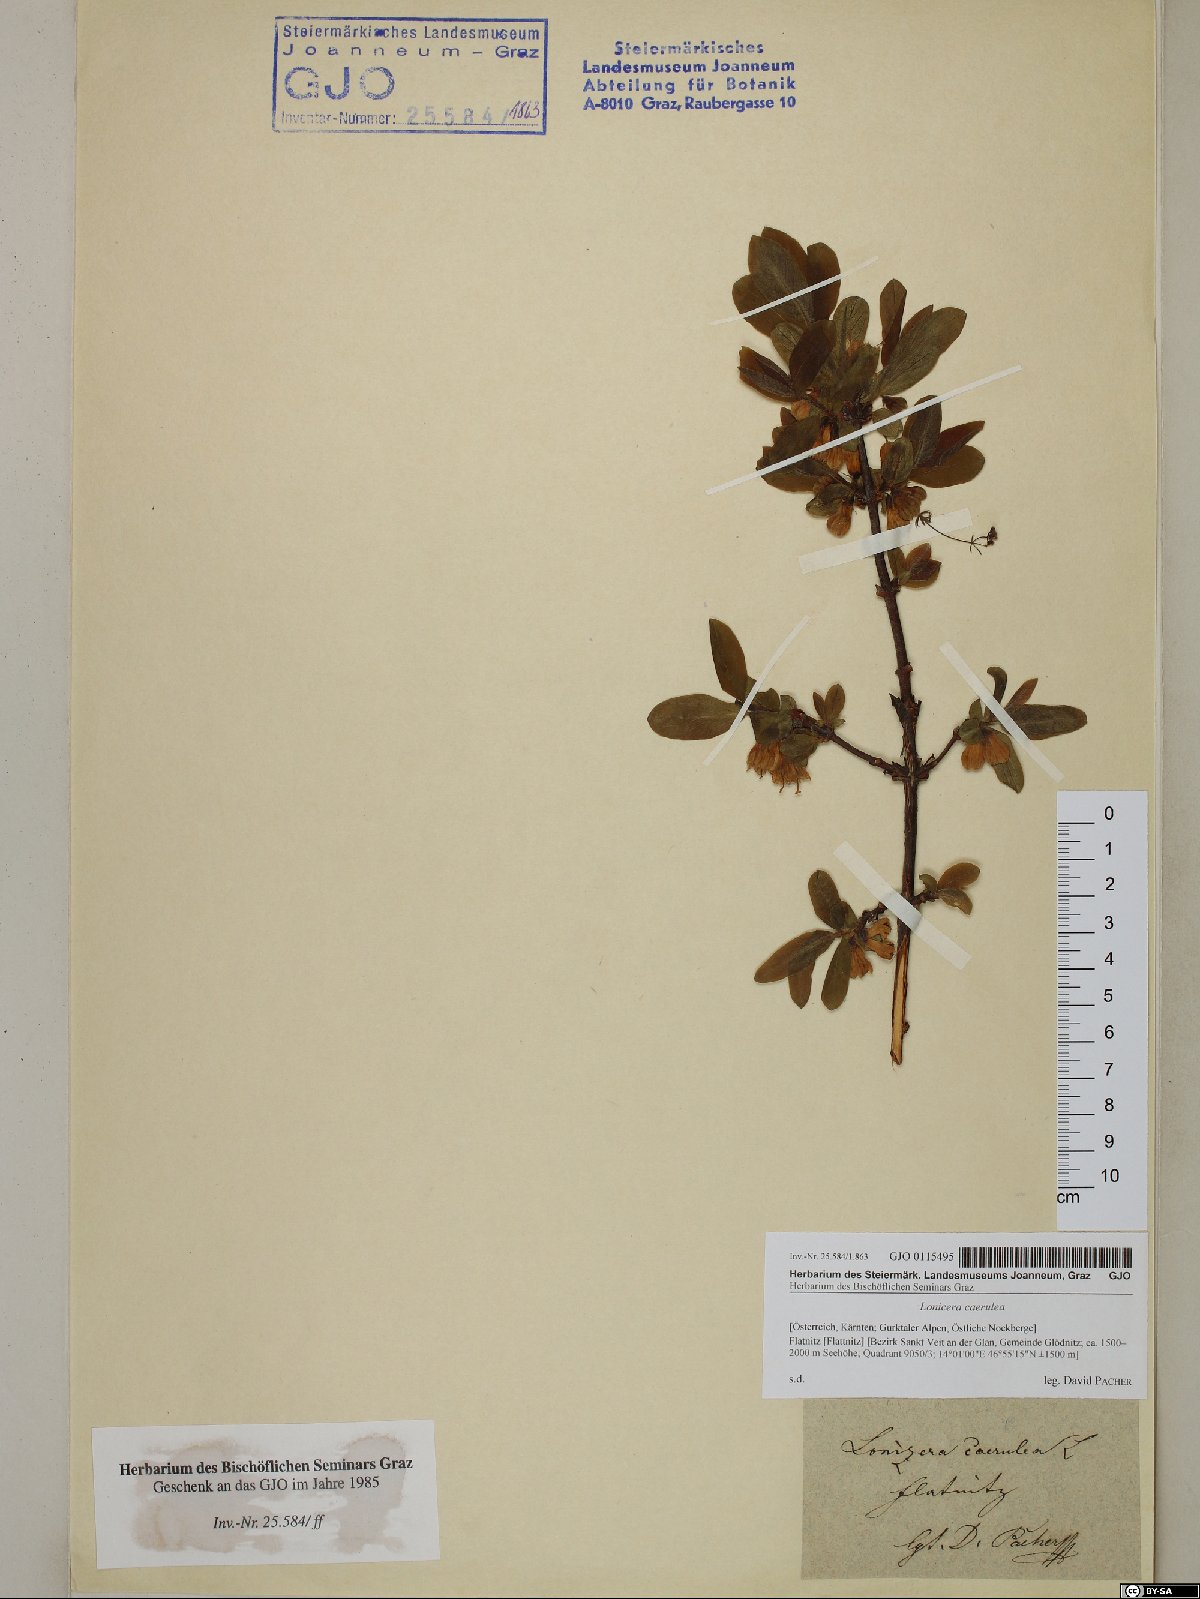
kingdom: Plantae
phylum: Tracheophyta
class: Magnoliopsida
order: Dipsacales
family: Caprifoliaceae
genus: Lonicera
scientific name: Lonicera caerulea
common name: Blue honeysuckle
